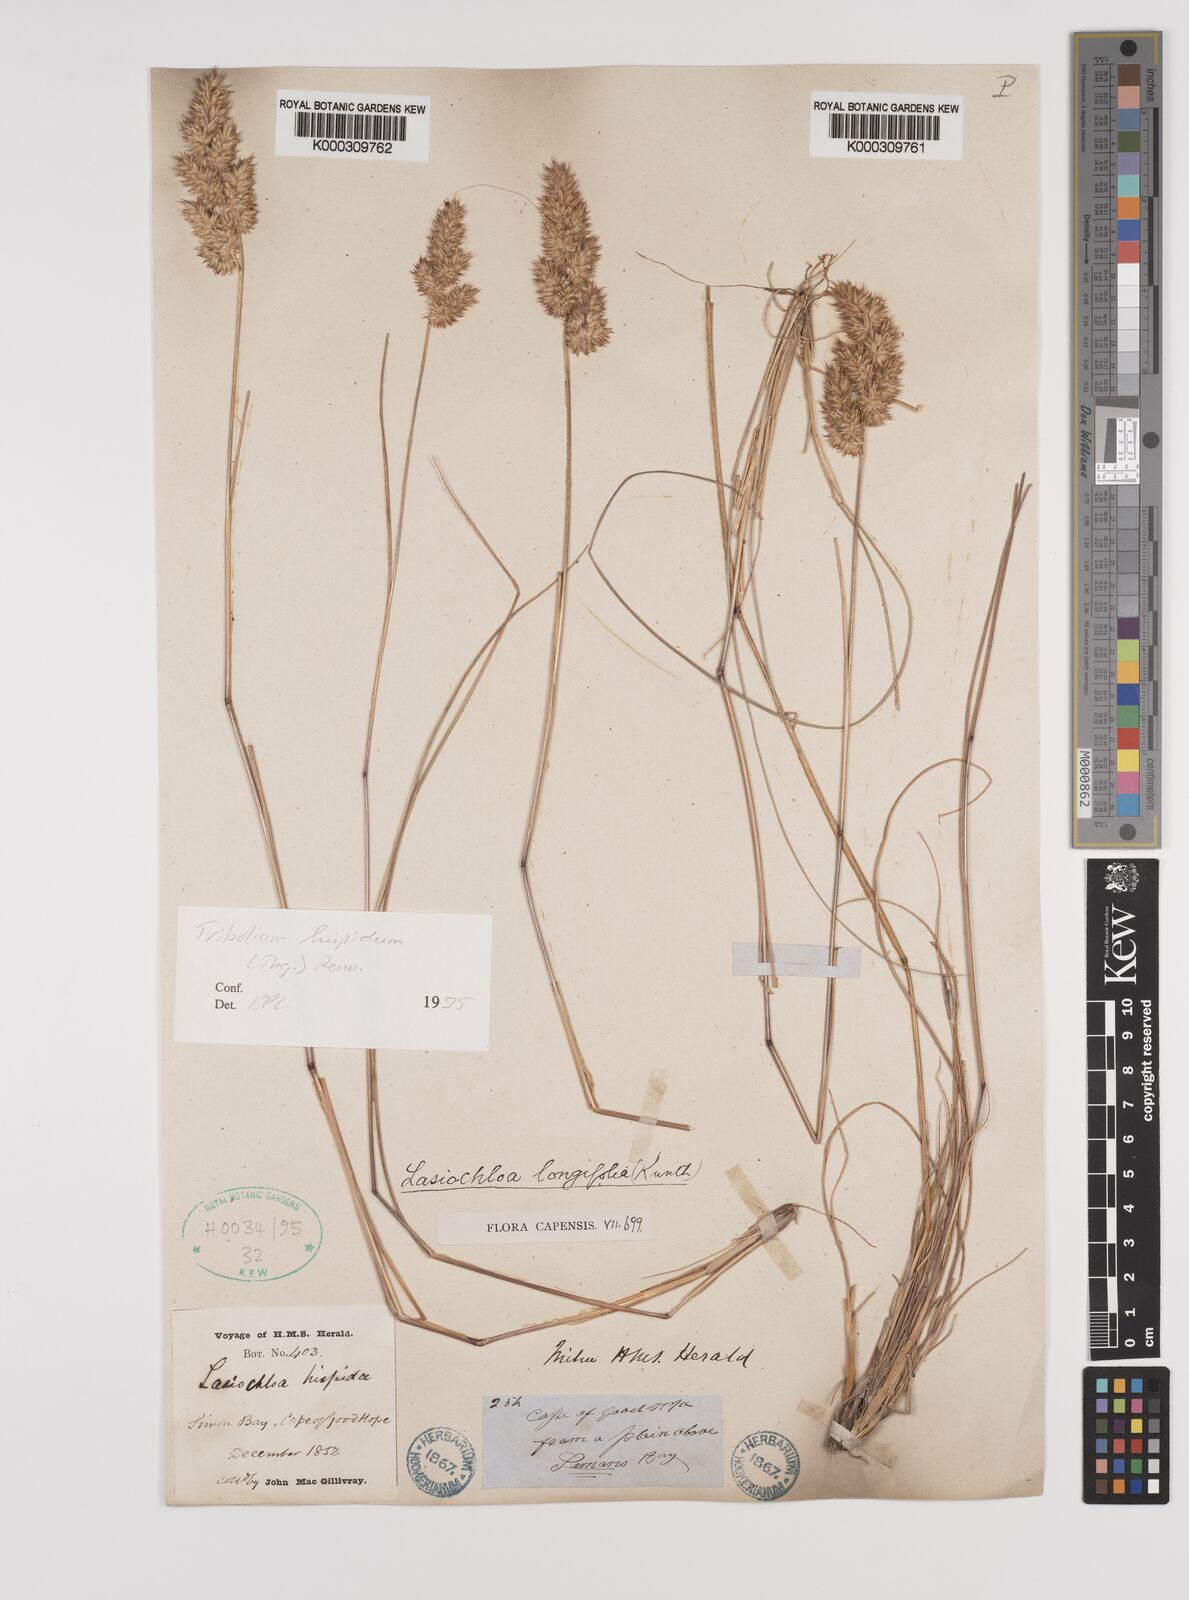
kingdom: Plantae
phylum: Tracheophyta
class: Liliopsida
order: Poales
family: Poaceae
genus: Tribolium
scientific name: Tribolium hispidum
